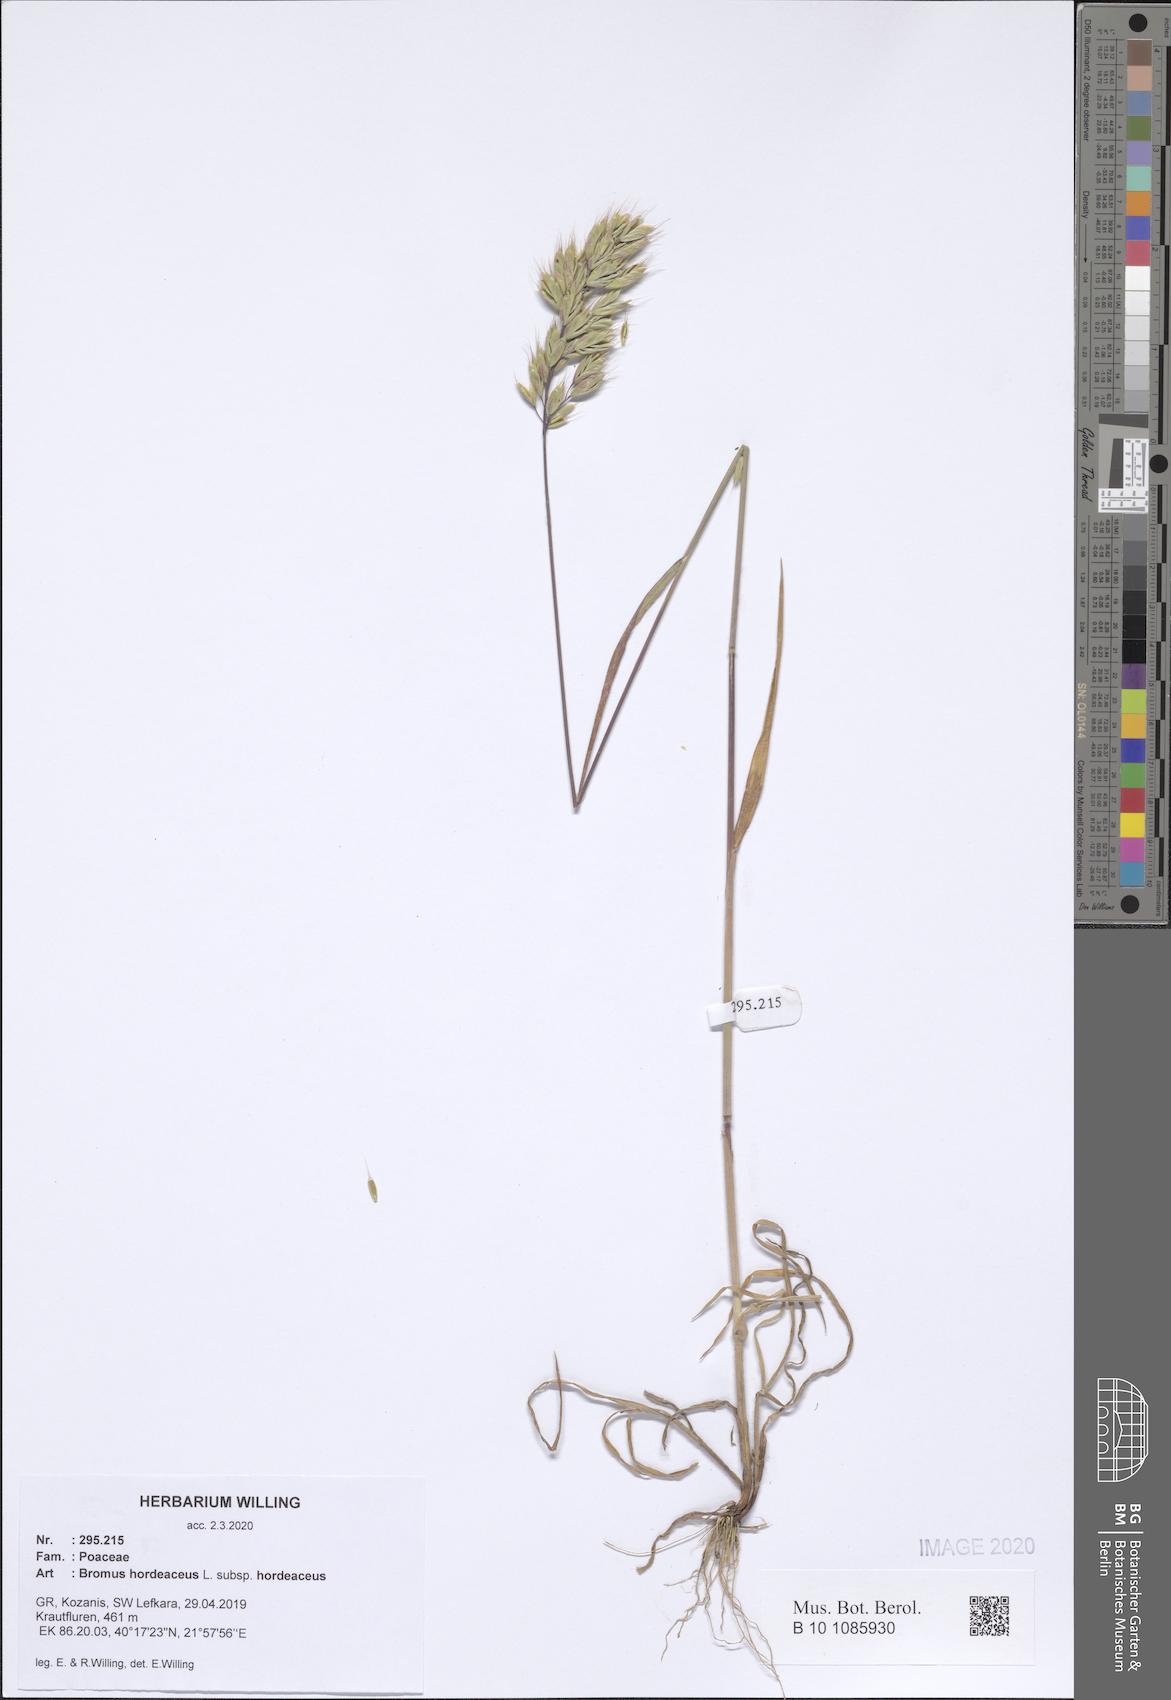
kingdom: Plantae
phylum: Tracheophyta
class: Liliopsida
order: Poales
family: Poaceae
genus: Bromus
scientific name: Bromus hordeaceus
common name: Soft brome
